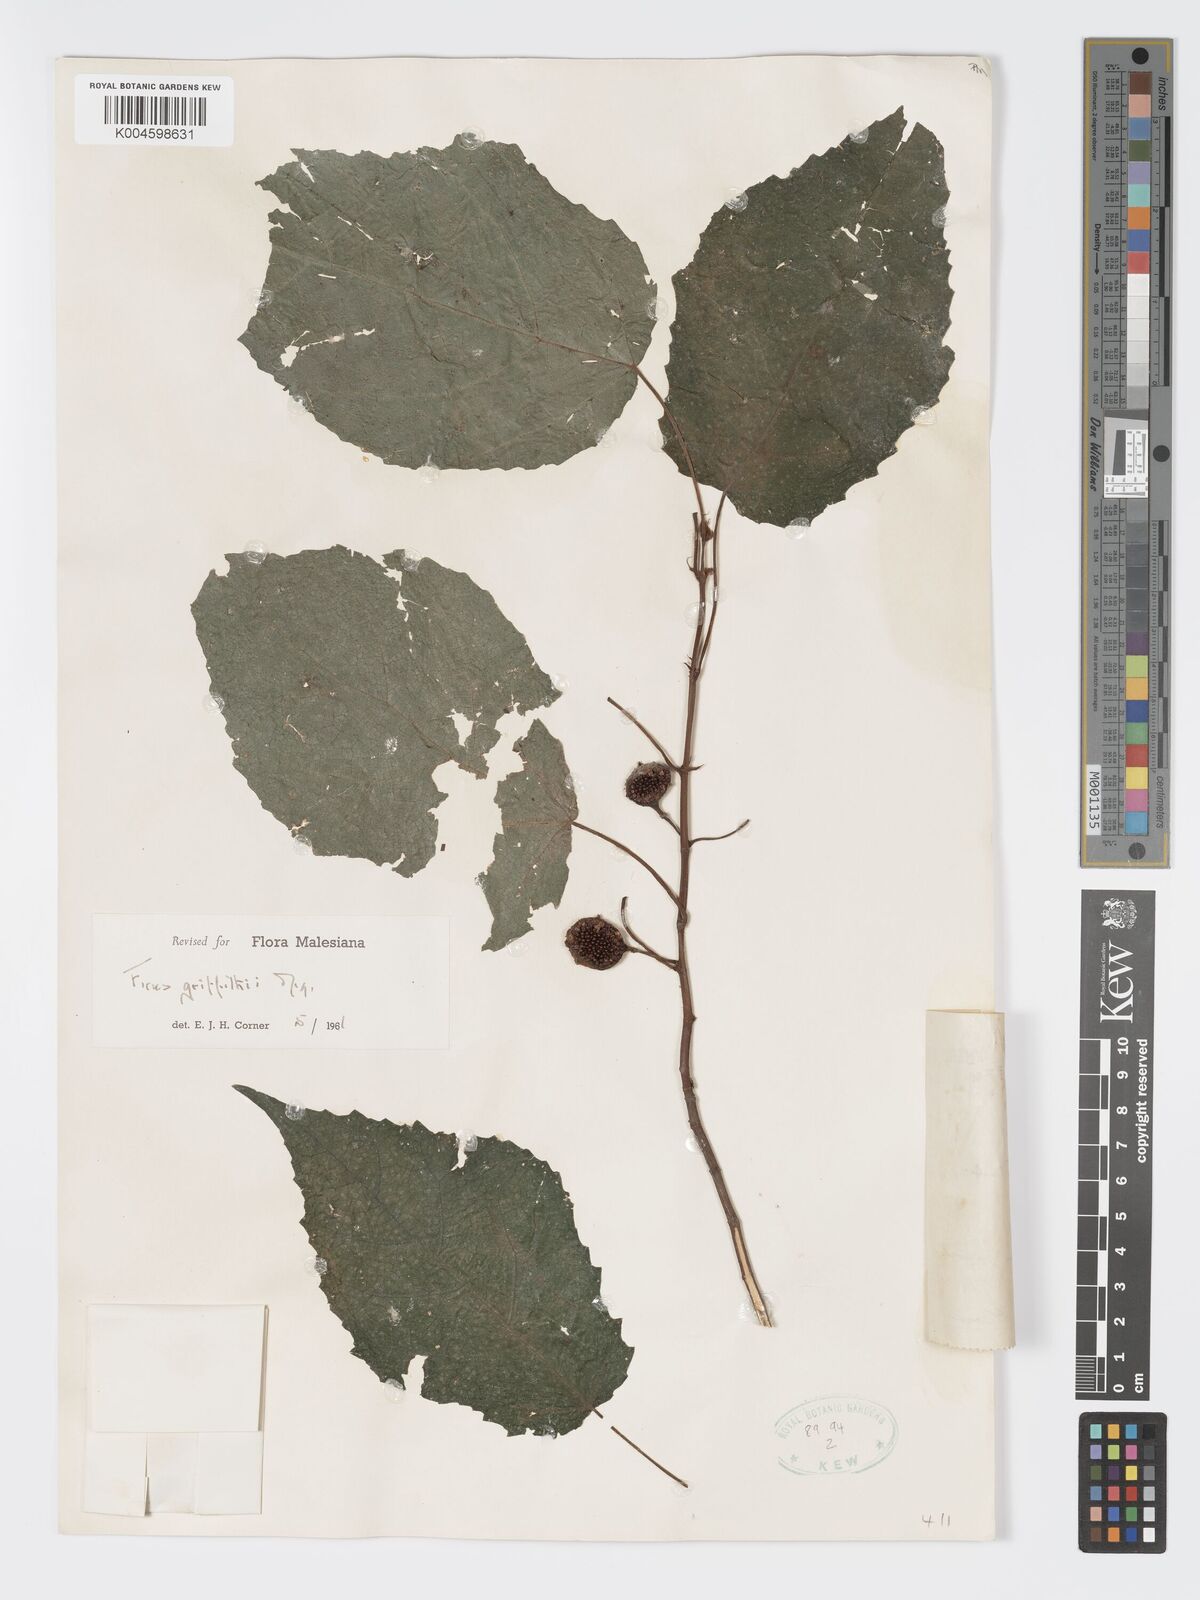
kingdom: Plantae
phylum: Tracheophyta
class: Magnoliopsida
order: Rosales
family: Moraceae
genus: Ficus
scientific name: Ficus griffithii
